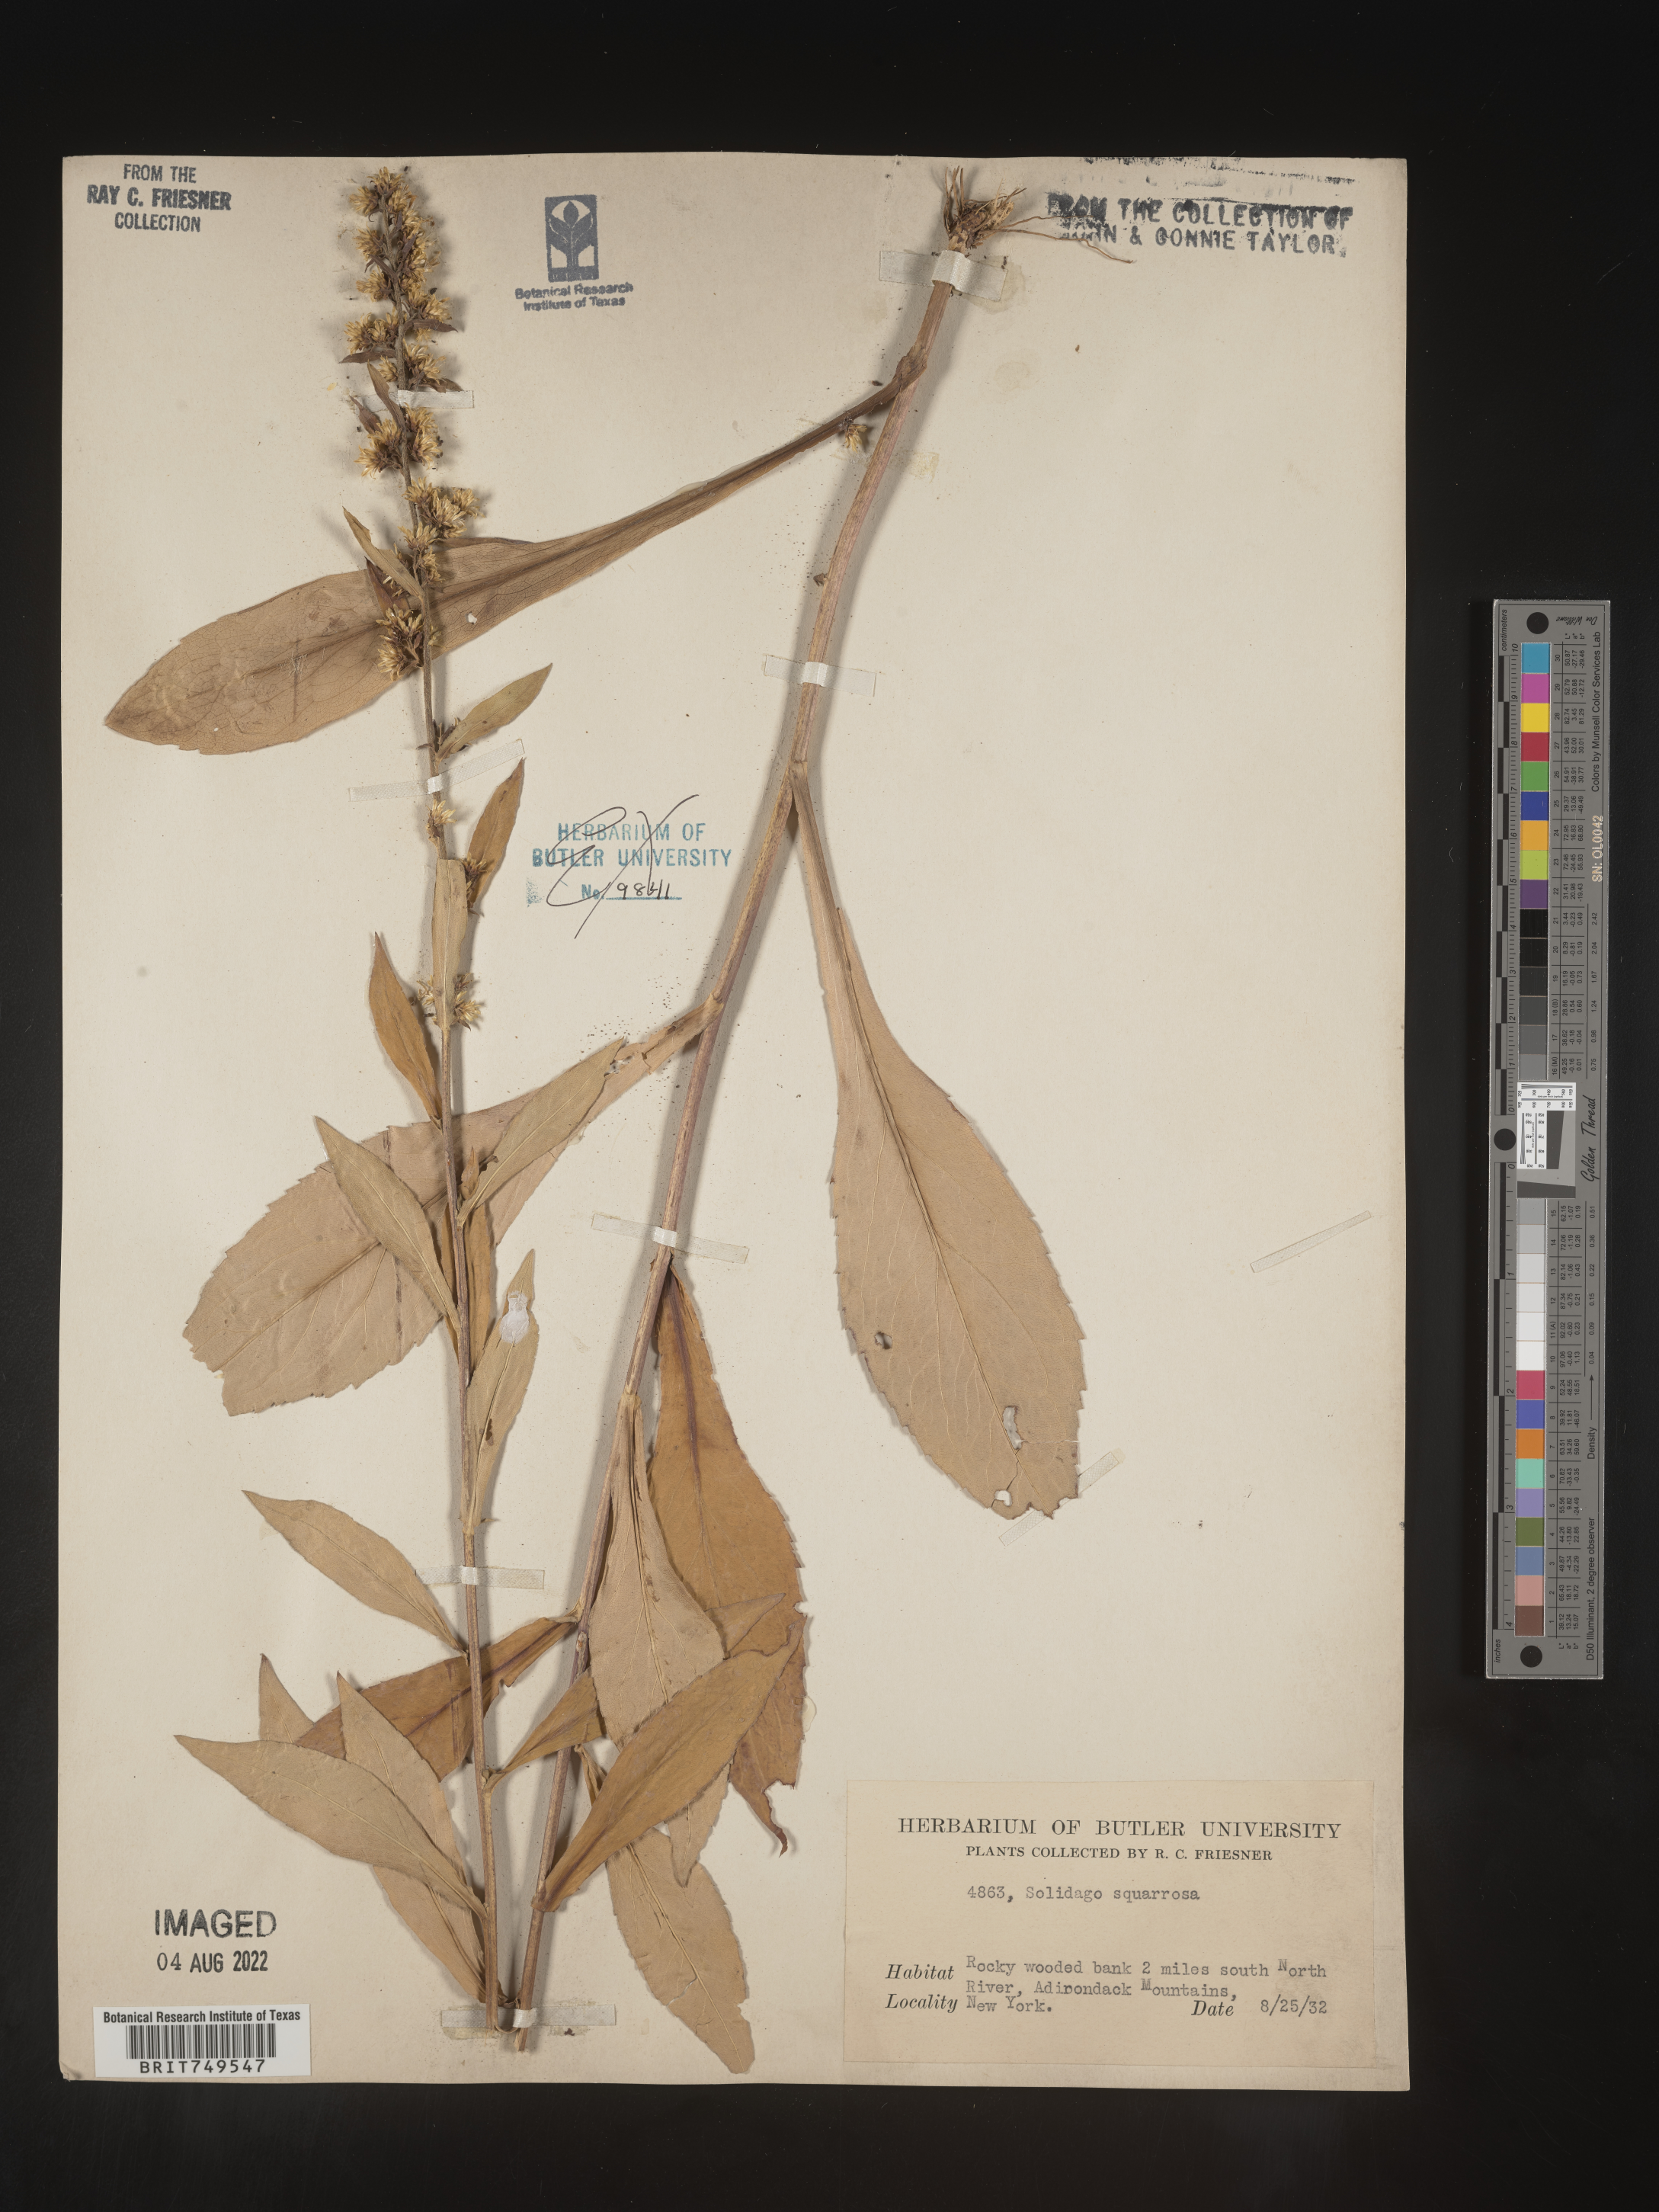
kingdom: Plantae
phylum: Tracheophyta
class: Magnoliopsida
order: Asterales
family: Asteraceae
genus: Solidago
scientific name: Solidago squarrosa
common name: Stout goldenrod
